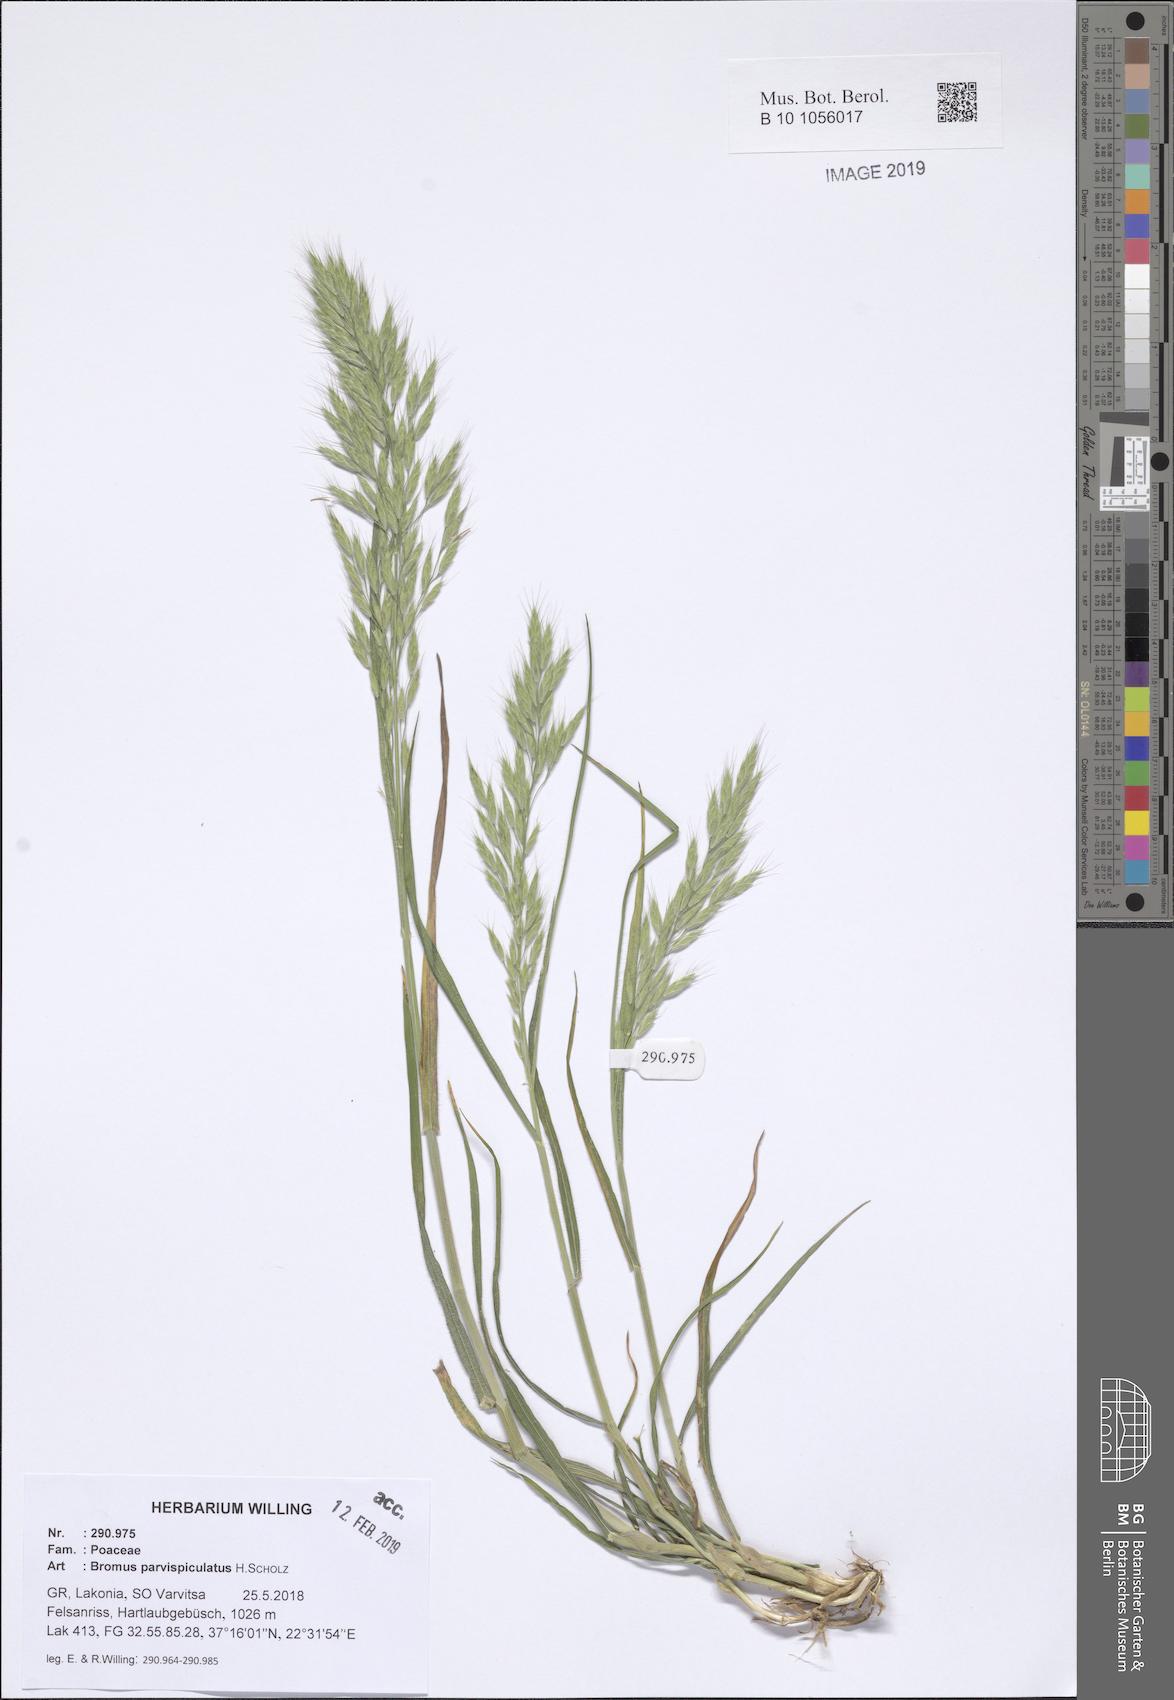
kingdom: Plantae
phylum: Tracheophyta
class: Liliopsida
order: Poales
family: Poaceae
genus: Bromus
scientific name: Bromus hordeaceus
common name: Soft brome
